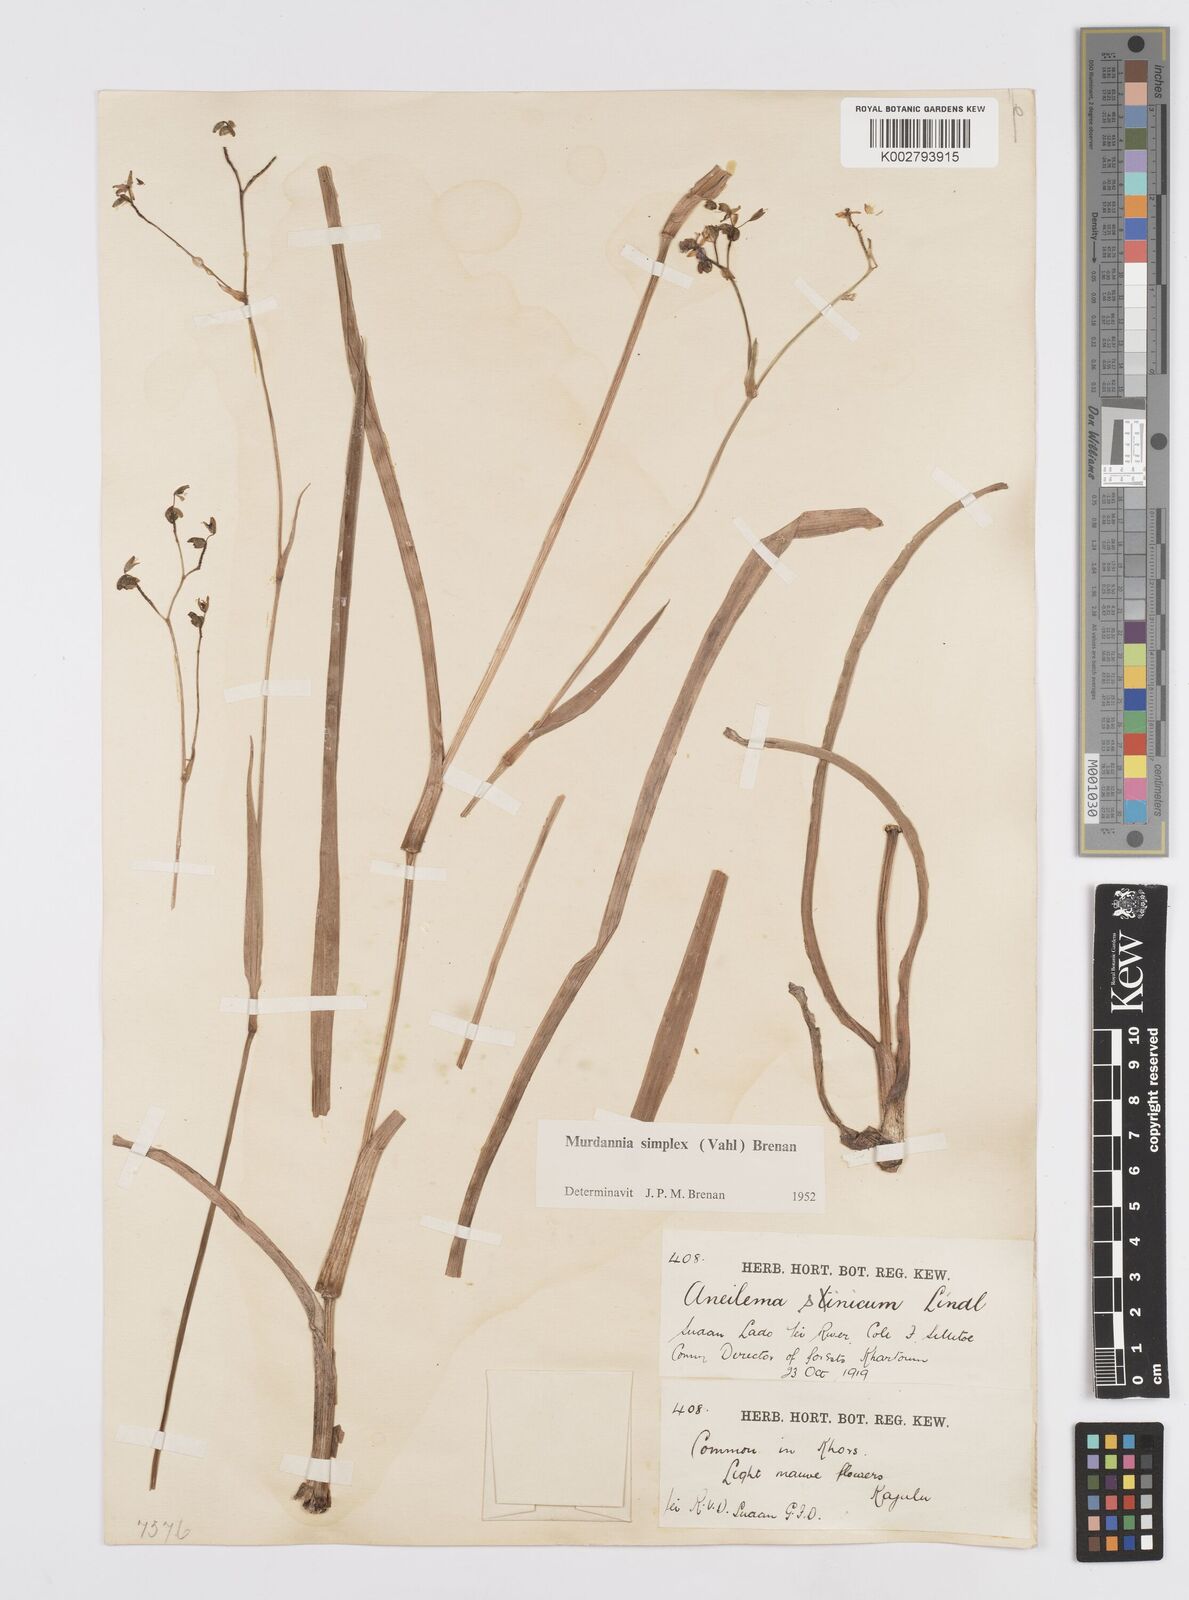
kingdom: Plantae
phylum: Tracheophyta
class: Liliopsida
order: Commelinales
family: Commelinaceae
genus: Murdannia
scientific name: Murdannia simplex
